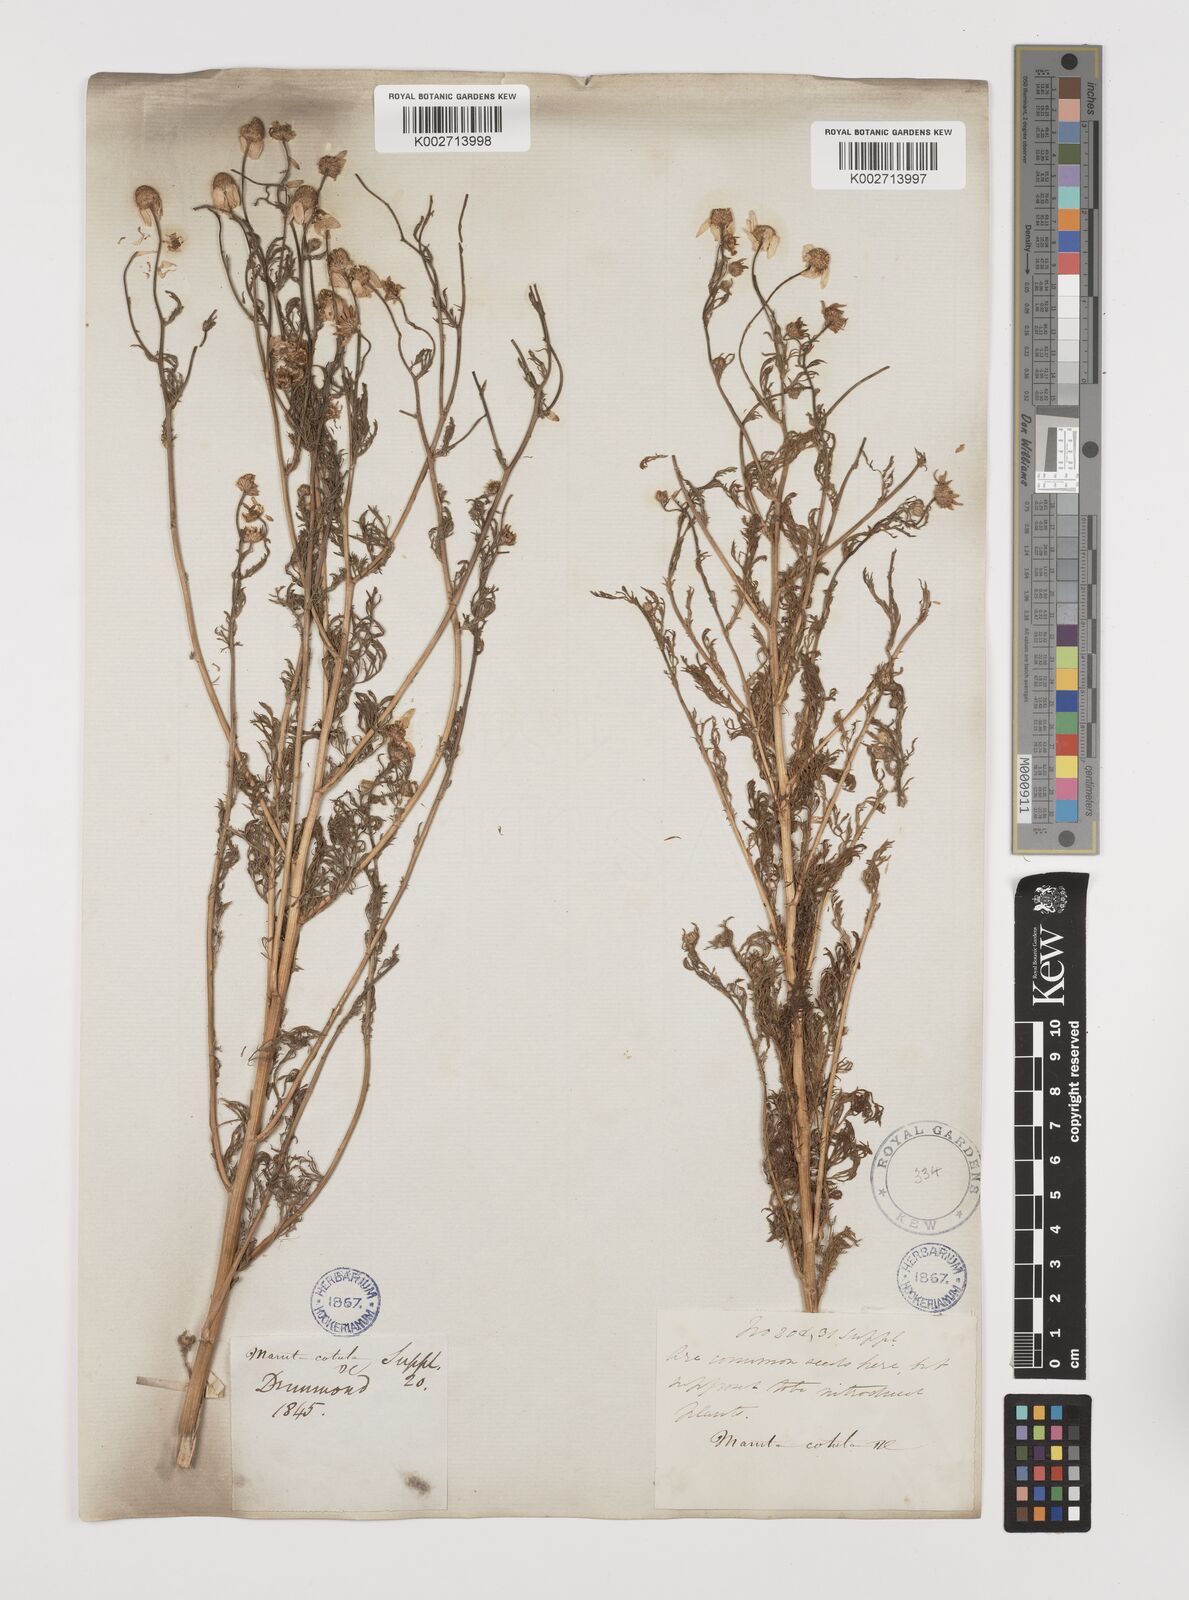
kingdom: Plantae
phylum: Tracheophyta
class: Magnoliopsida
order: Asterales
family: Asteraceae
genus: Anthemis
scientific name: Anthemis cotula
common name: Stinking chamomile
